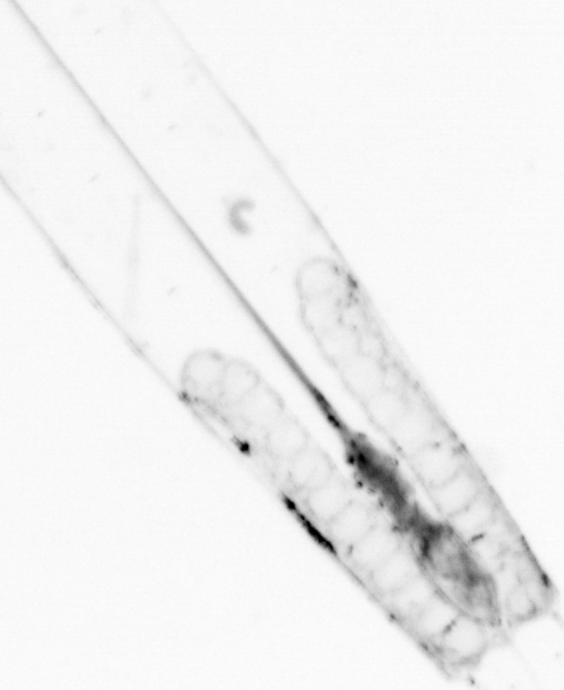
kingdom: Animalia
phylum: Chaetognatha
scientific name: Chaetognatha
